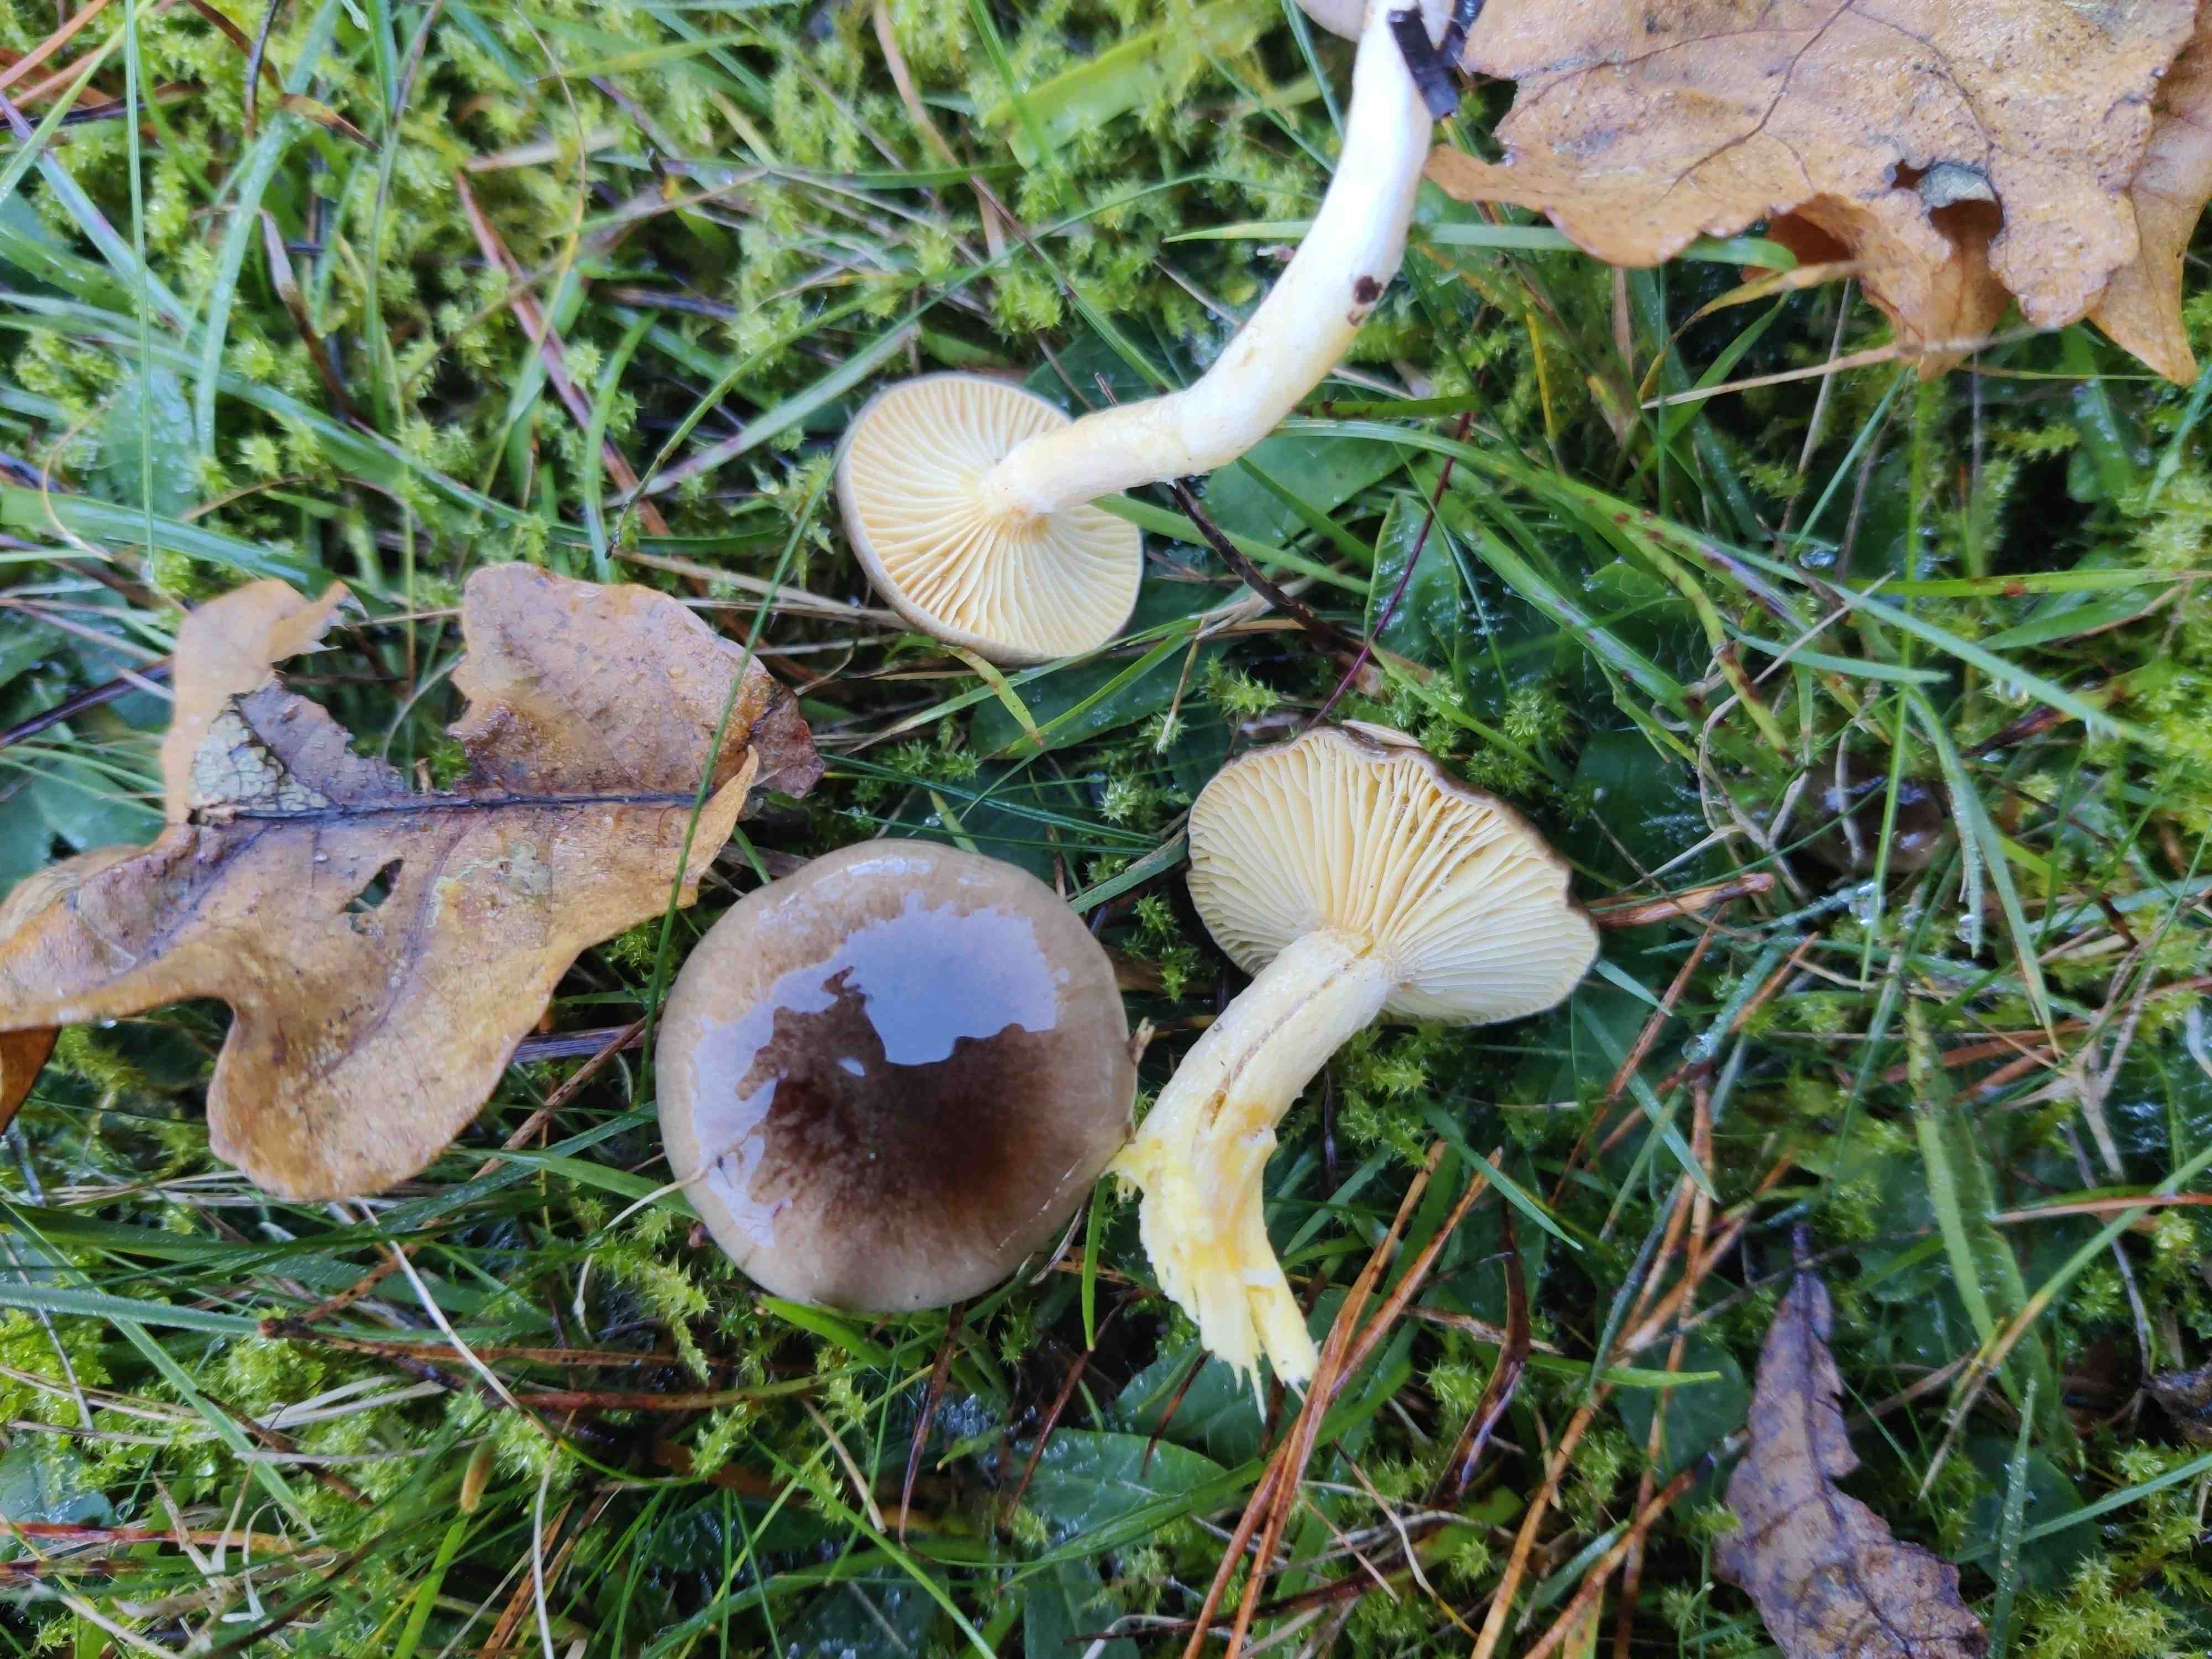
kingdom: Fungi
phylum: Basidiomycota
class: Agaricomycetes
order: Agaricales
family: Hygrophoraceae
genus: Hygrophorus
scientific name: Hygrophorus hypothejus
